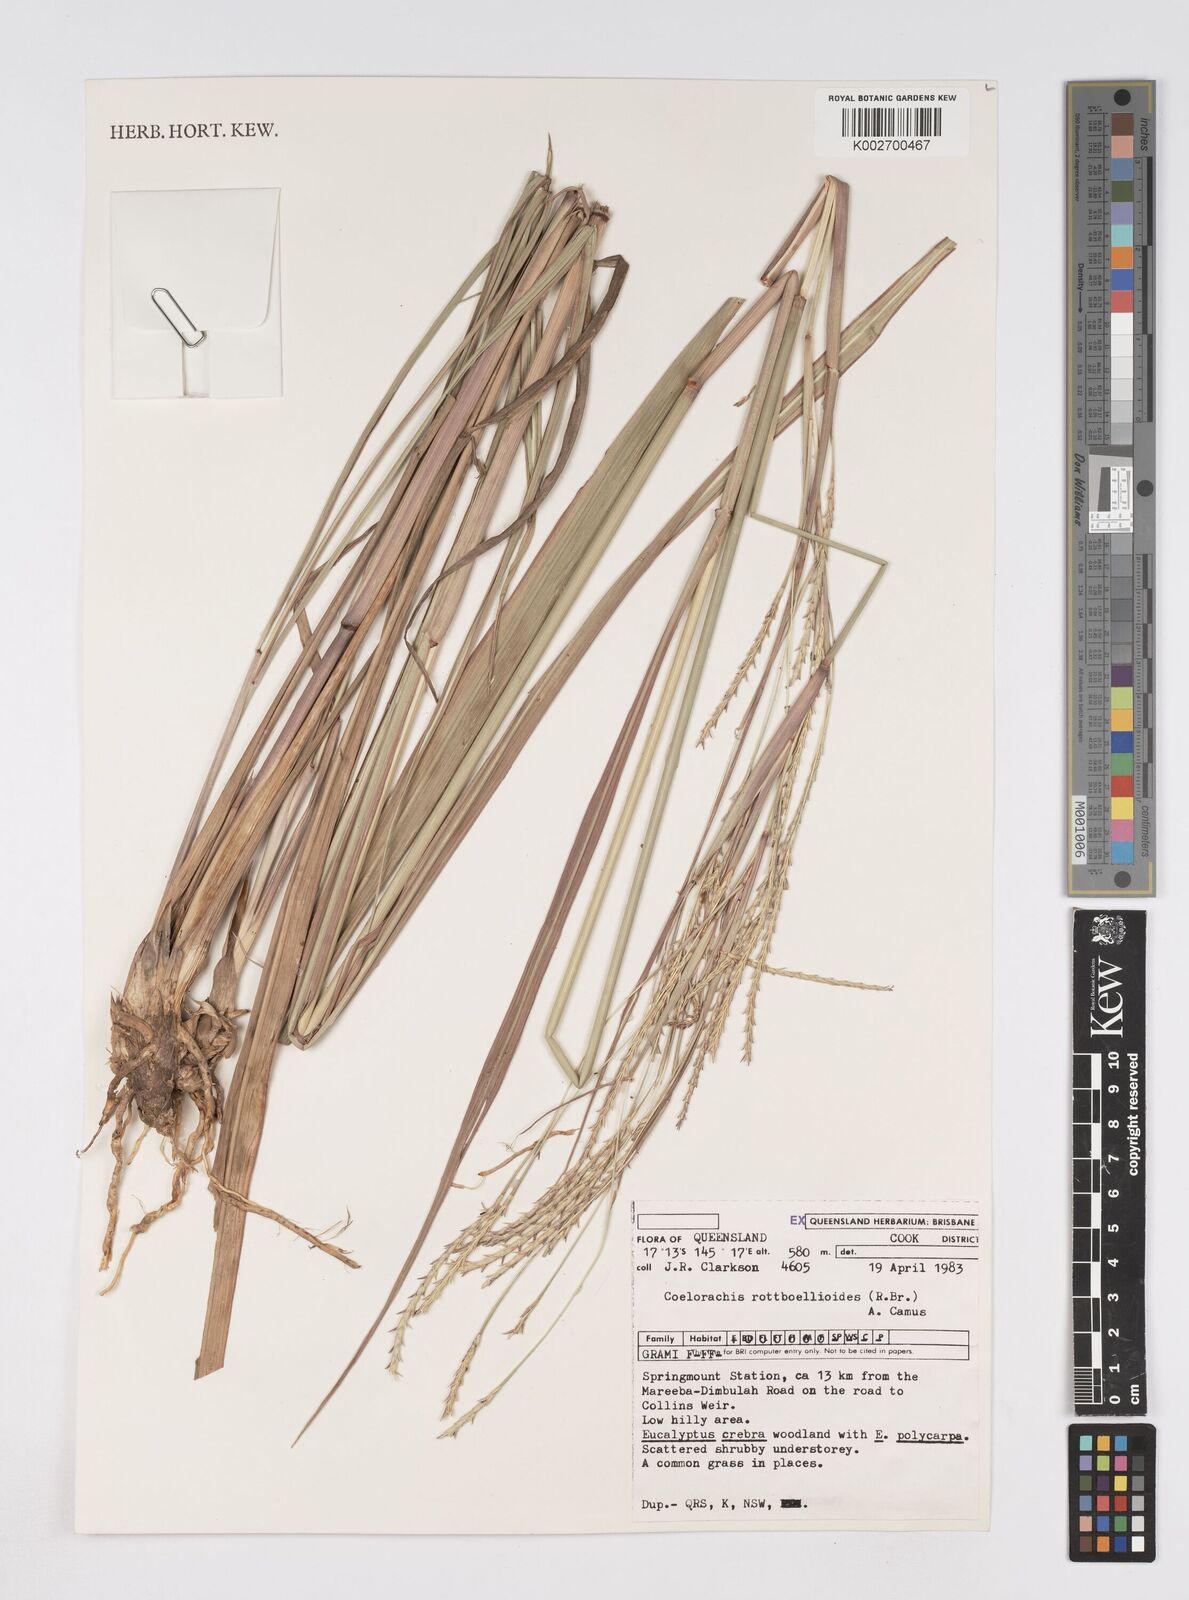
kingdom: Plantae
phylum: Tracheophyta
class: Liliopsida
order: Poales
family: Poaceae
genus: Rottboellia
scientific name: Rottboellia rottboellioides
